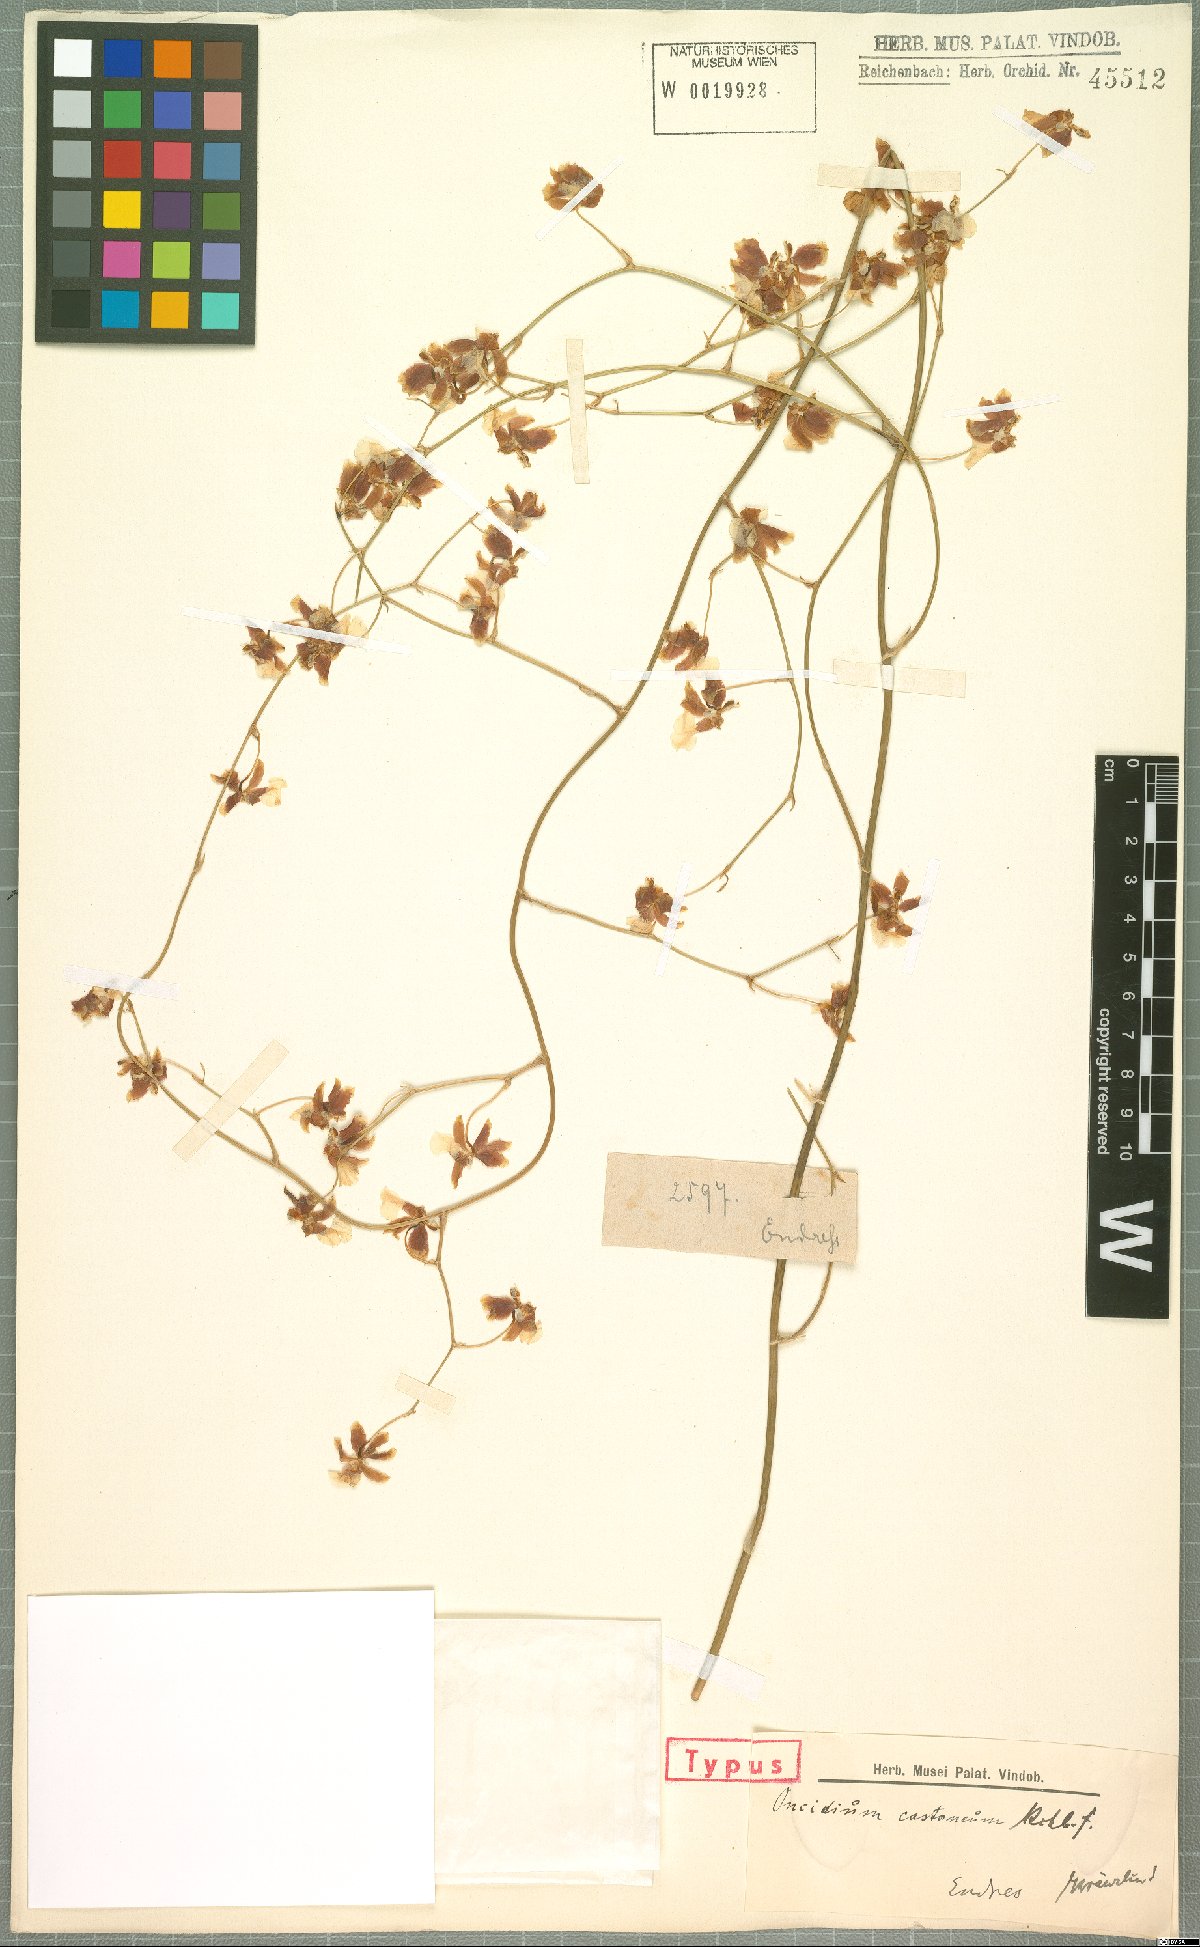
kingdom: Plantae
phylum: Tracheophyta
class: Liliopsida
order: Asparagales
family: Orchidaceae
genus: Oncidium
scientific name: Oncidium dichromaticum
